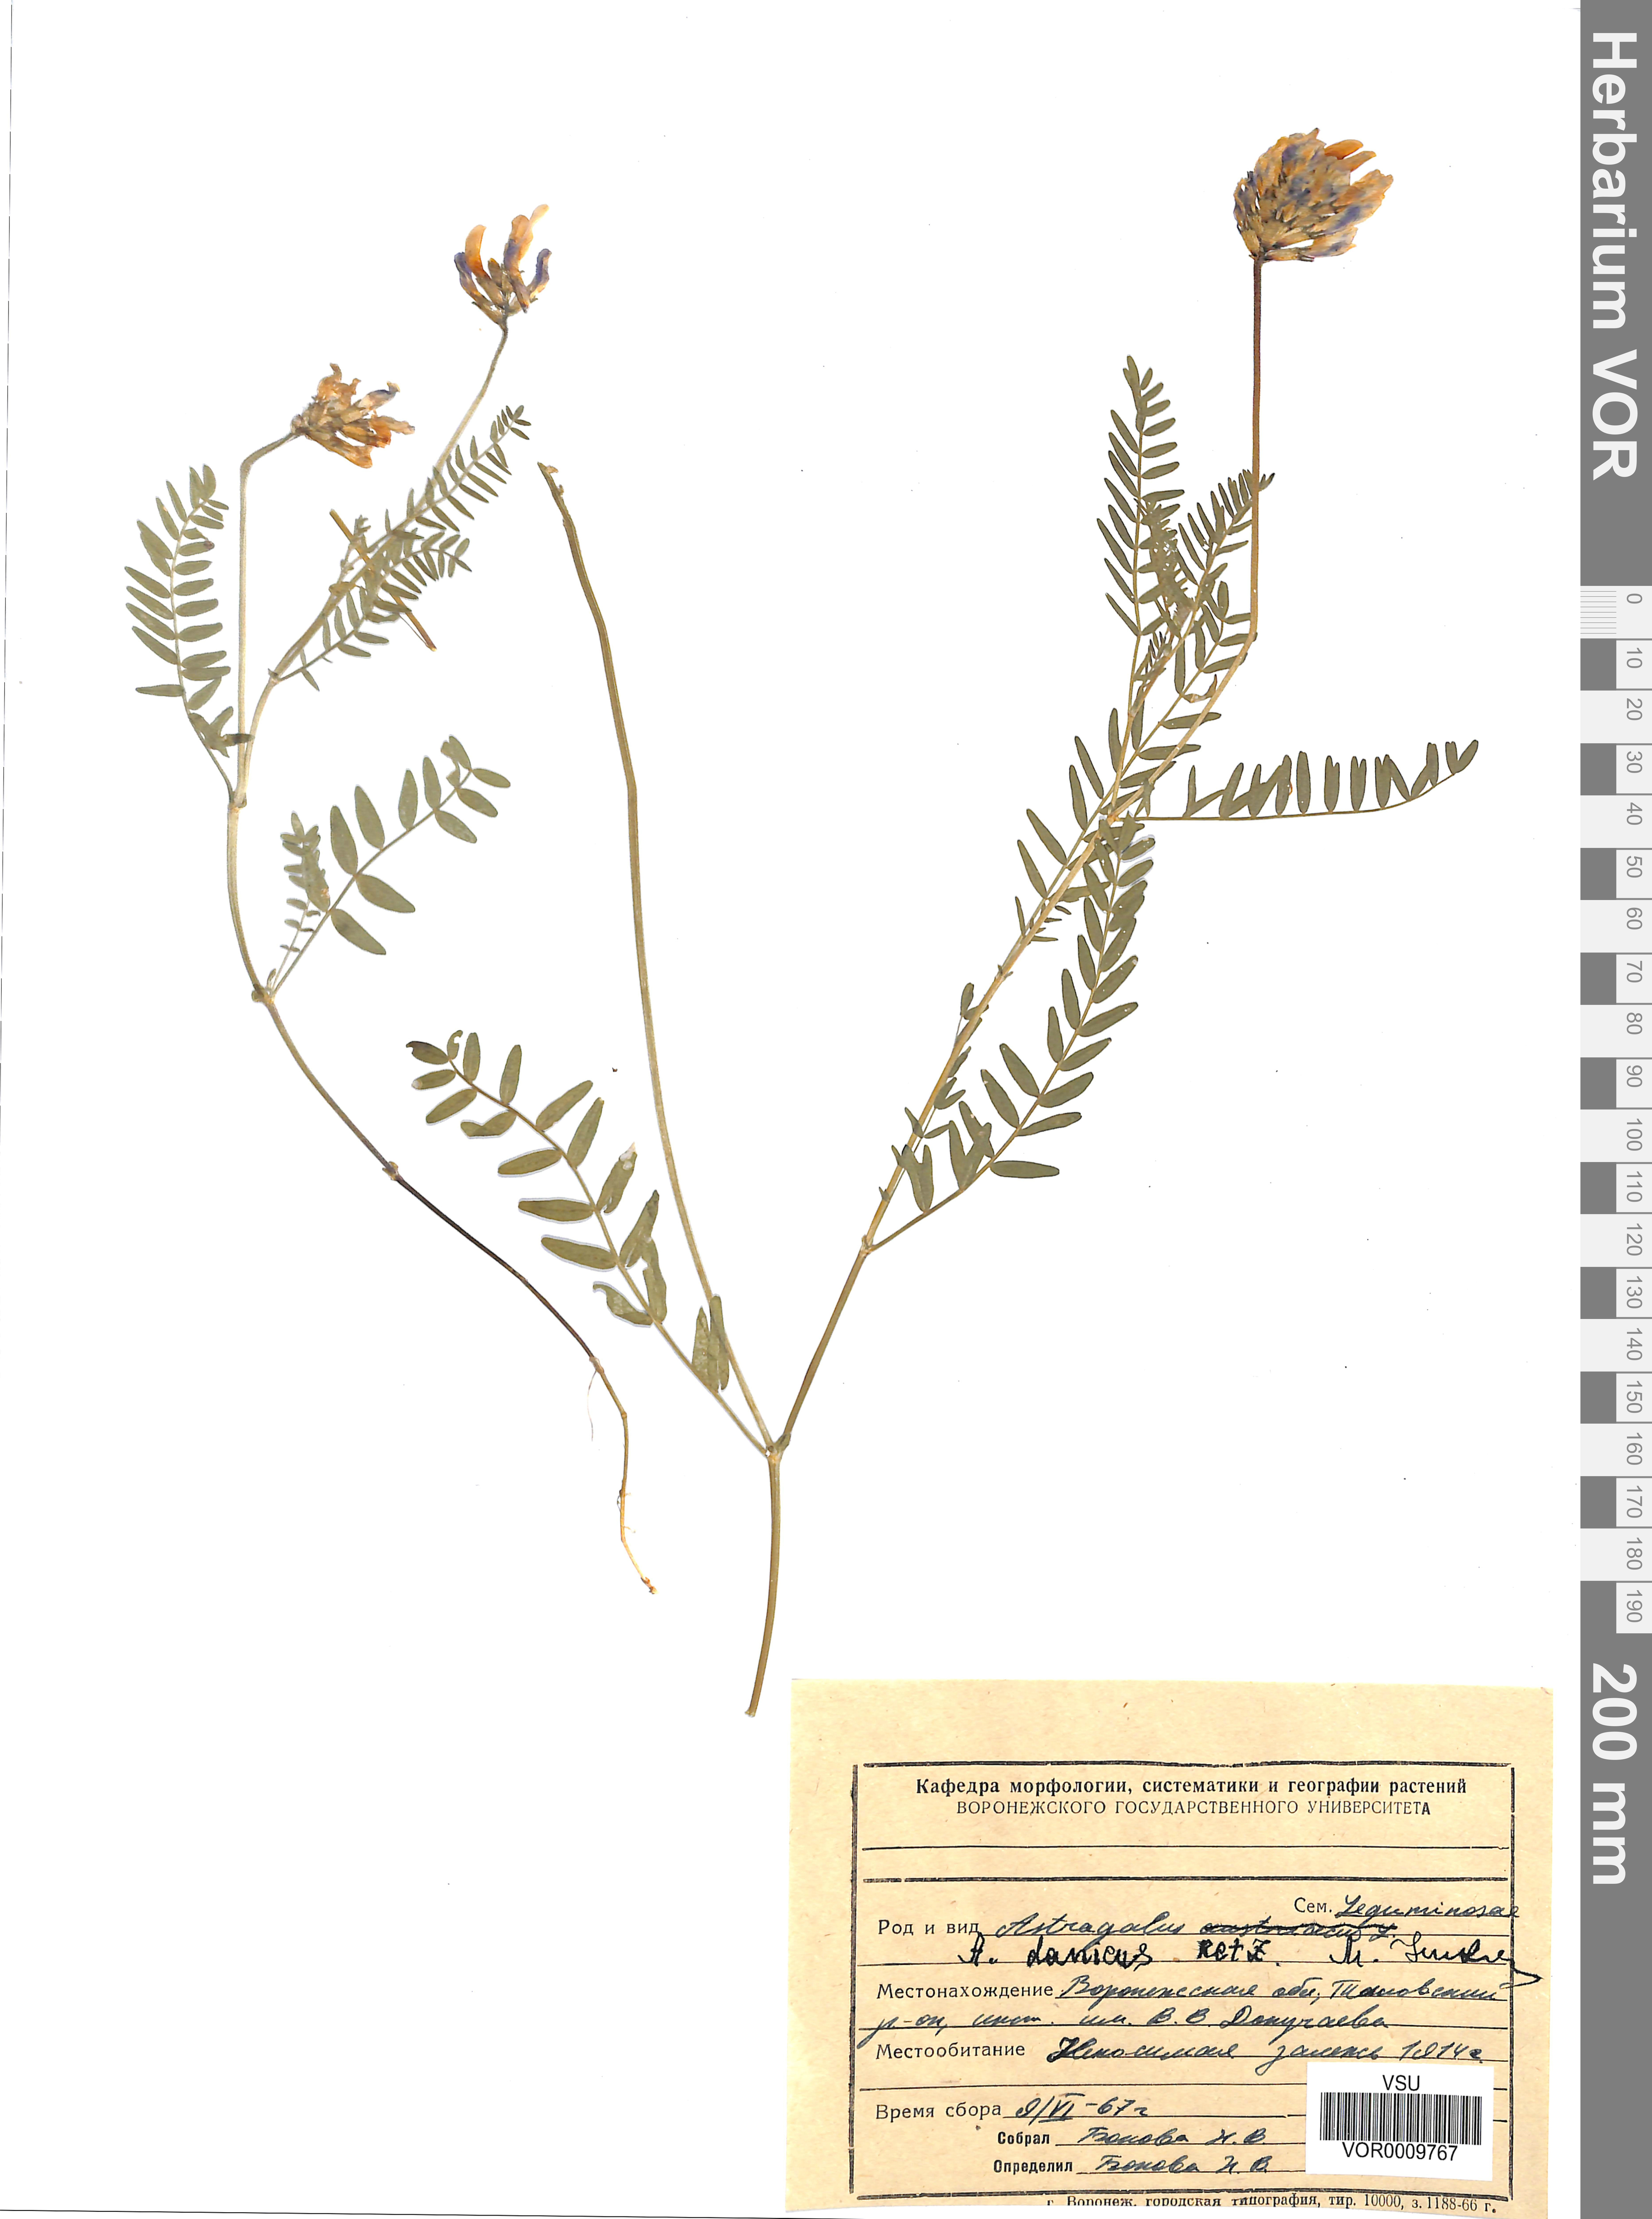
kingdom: Plantae
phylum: Tracheophyta
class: Magnoliopsida
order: Fabales
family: Fabaceae
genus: Astragalus
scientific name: Astragalus danicus
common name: Purple milk-vetch
